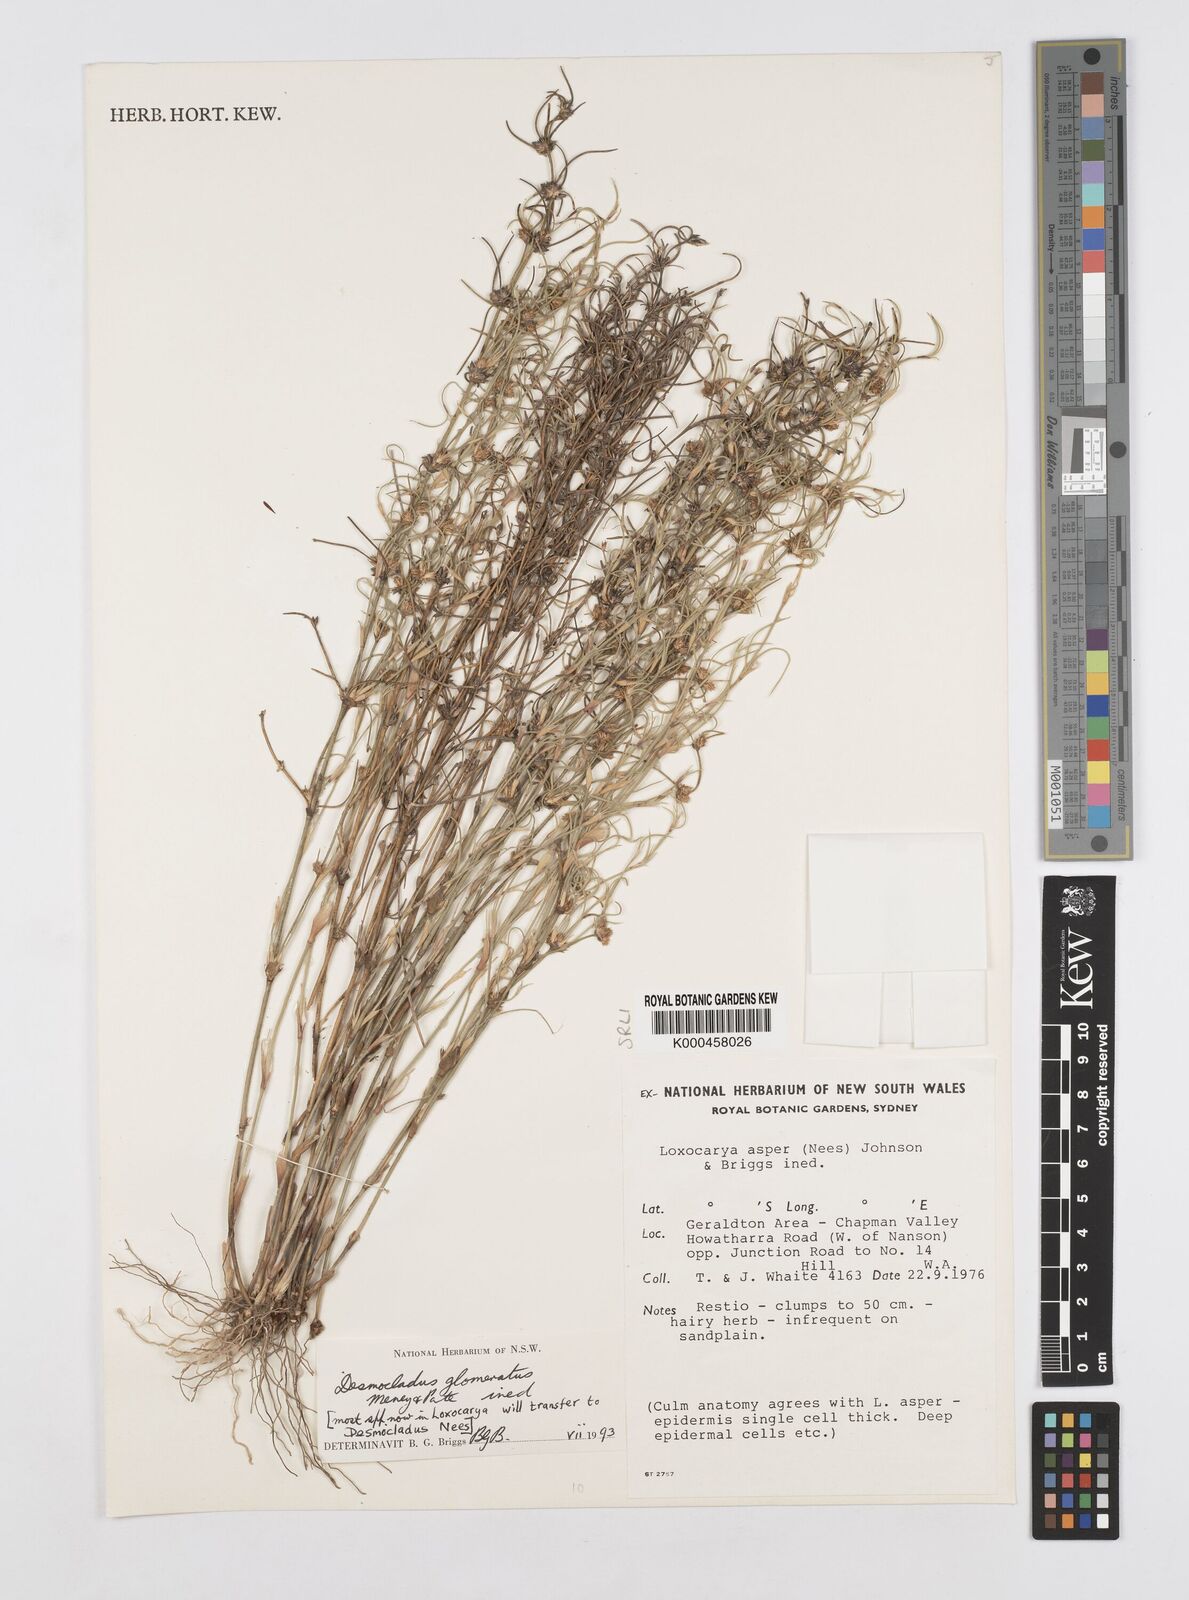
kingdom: Plantae
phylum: Tracheophyta
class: Liliopsida
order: Poales
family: Restionaceae
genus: Desmocladus
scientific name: Desmocladus
